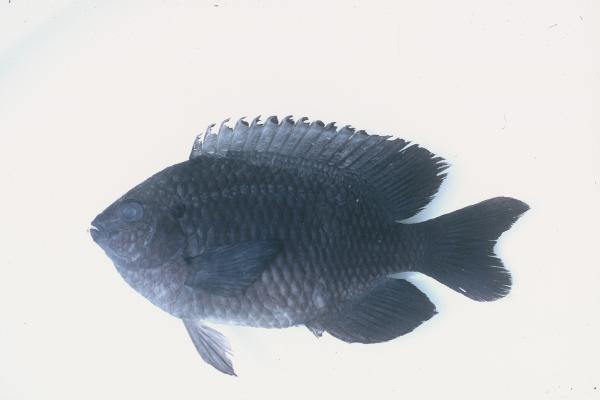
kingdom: Animalia
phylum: Chordata
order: Perciformes
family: Pomacentridae
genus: Pomacentrus
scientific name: Pomacentrus trilineatus
